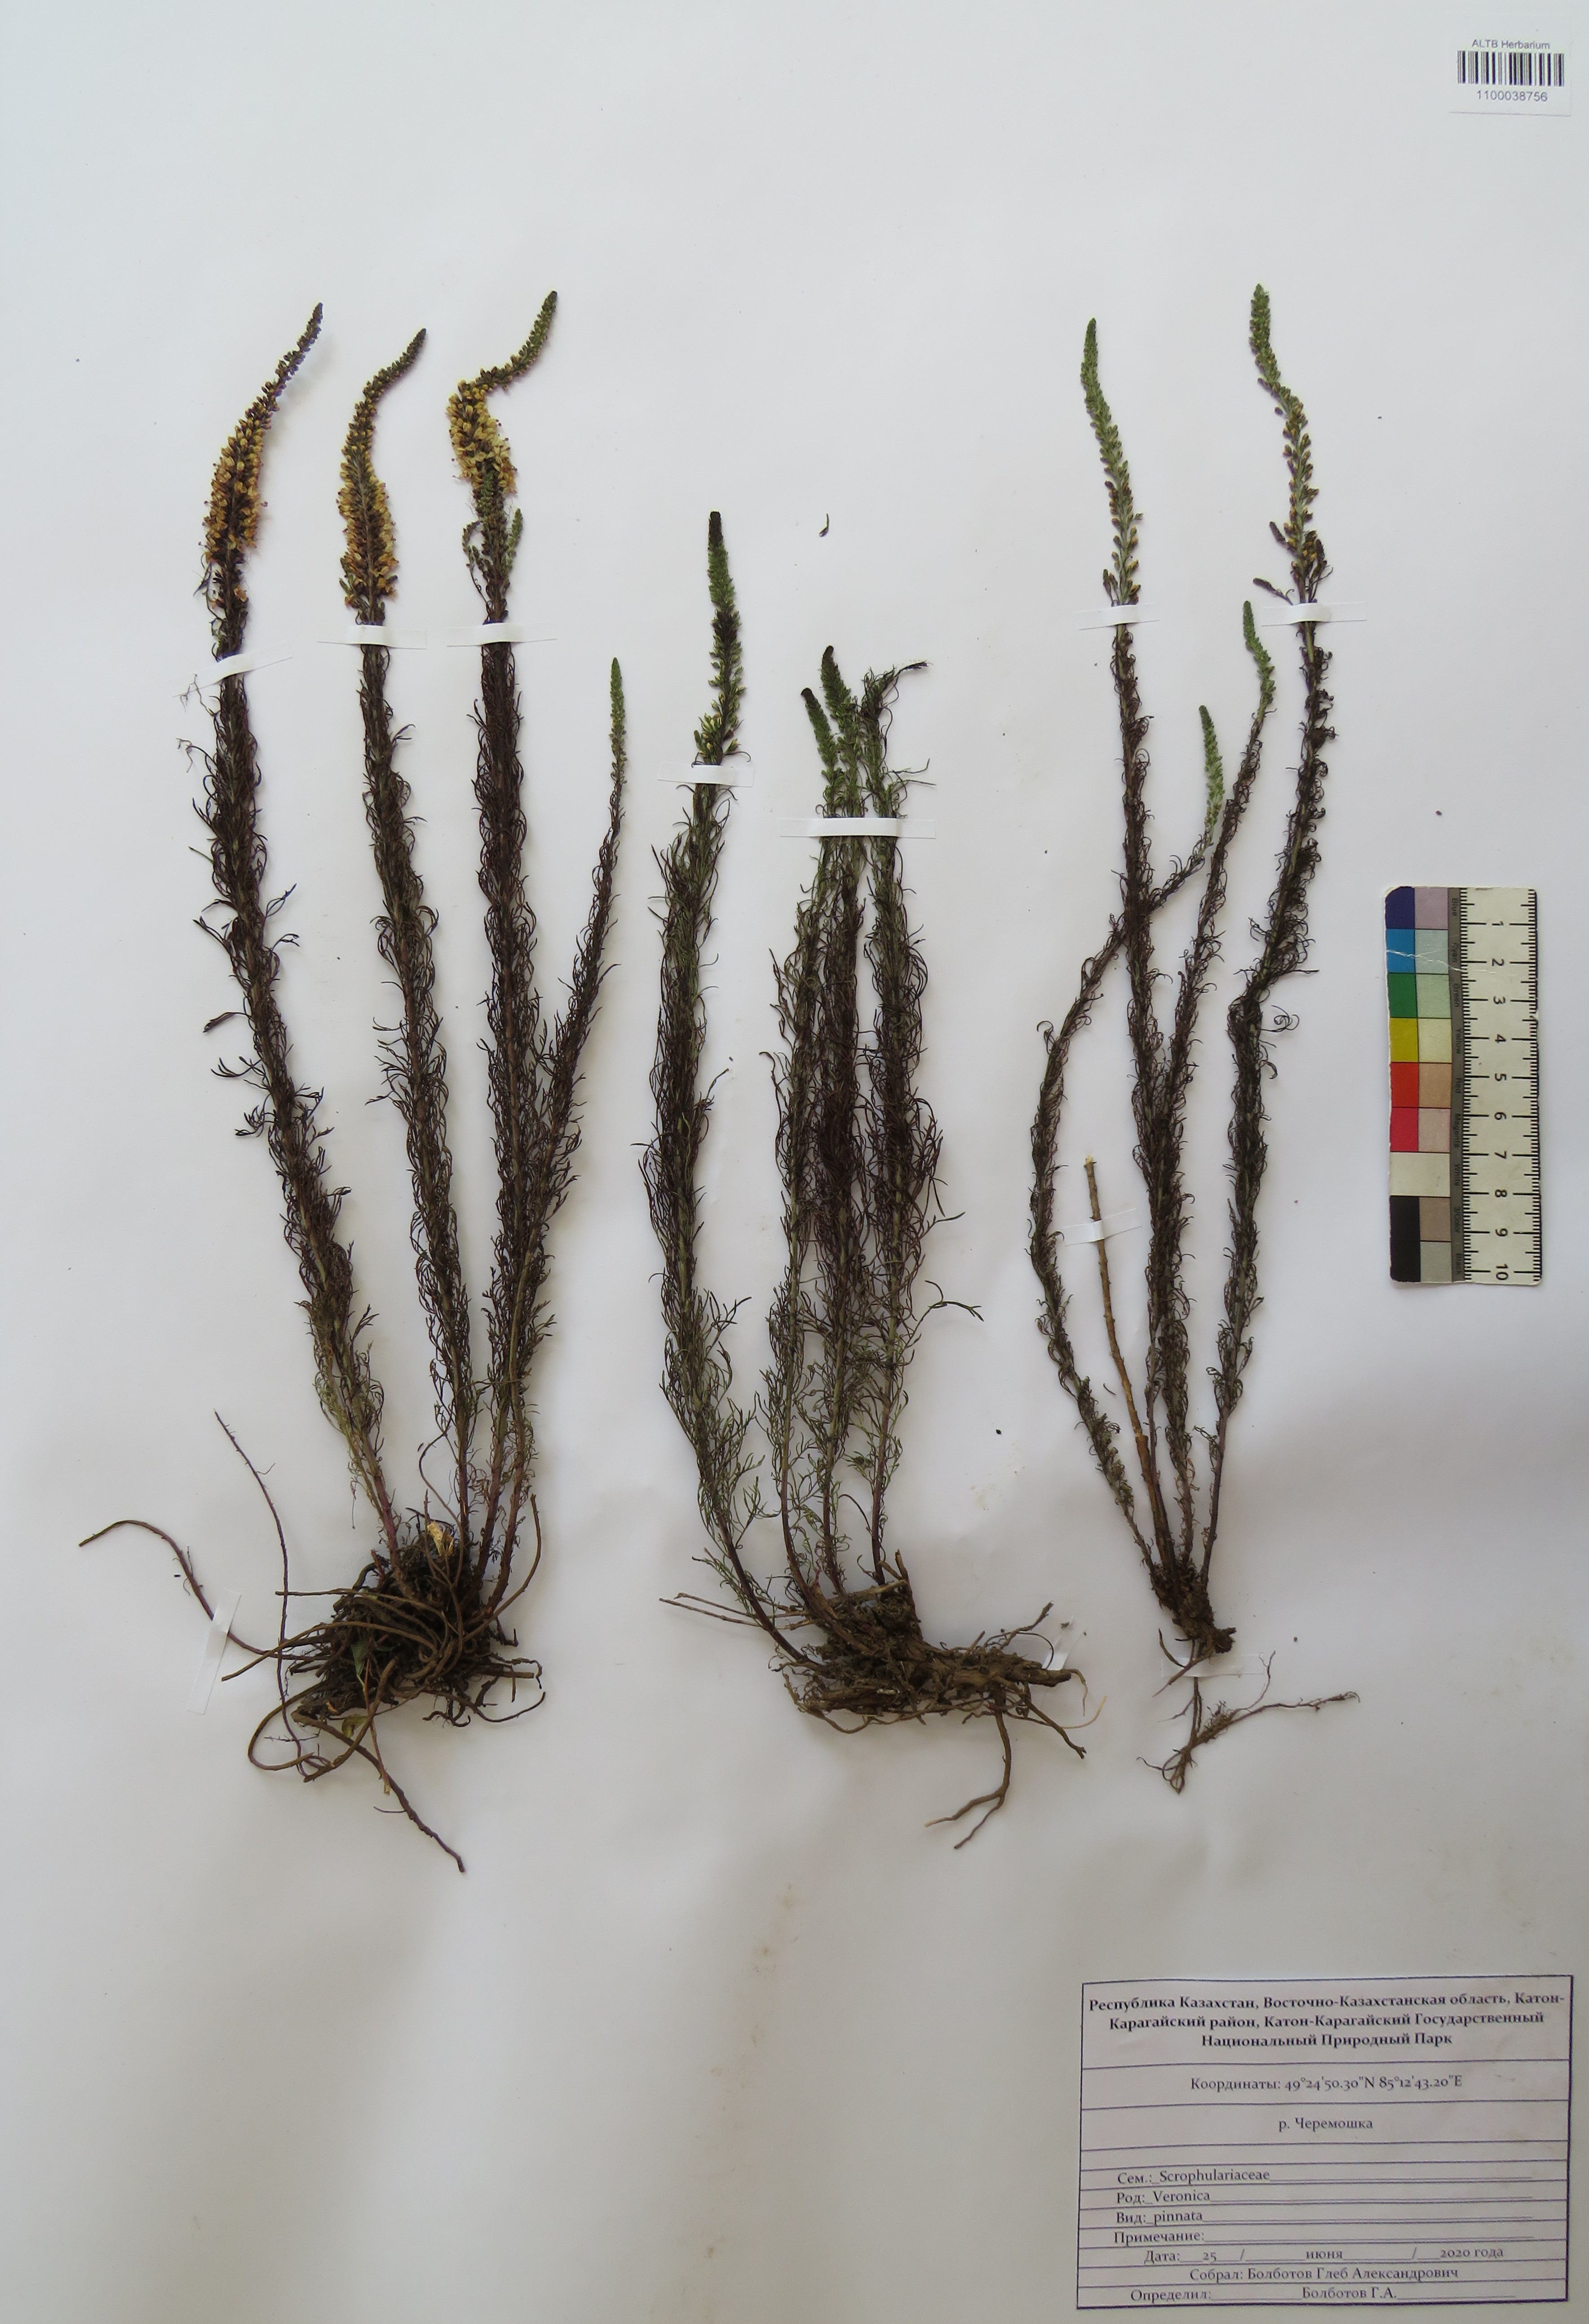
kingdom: Plantae
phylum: Tracheophyta
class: Magnoliopsida
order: Lamiales
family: Plantaginaceae
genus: Veronica
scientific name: Veronica pinnata
